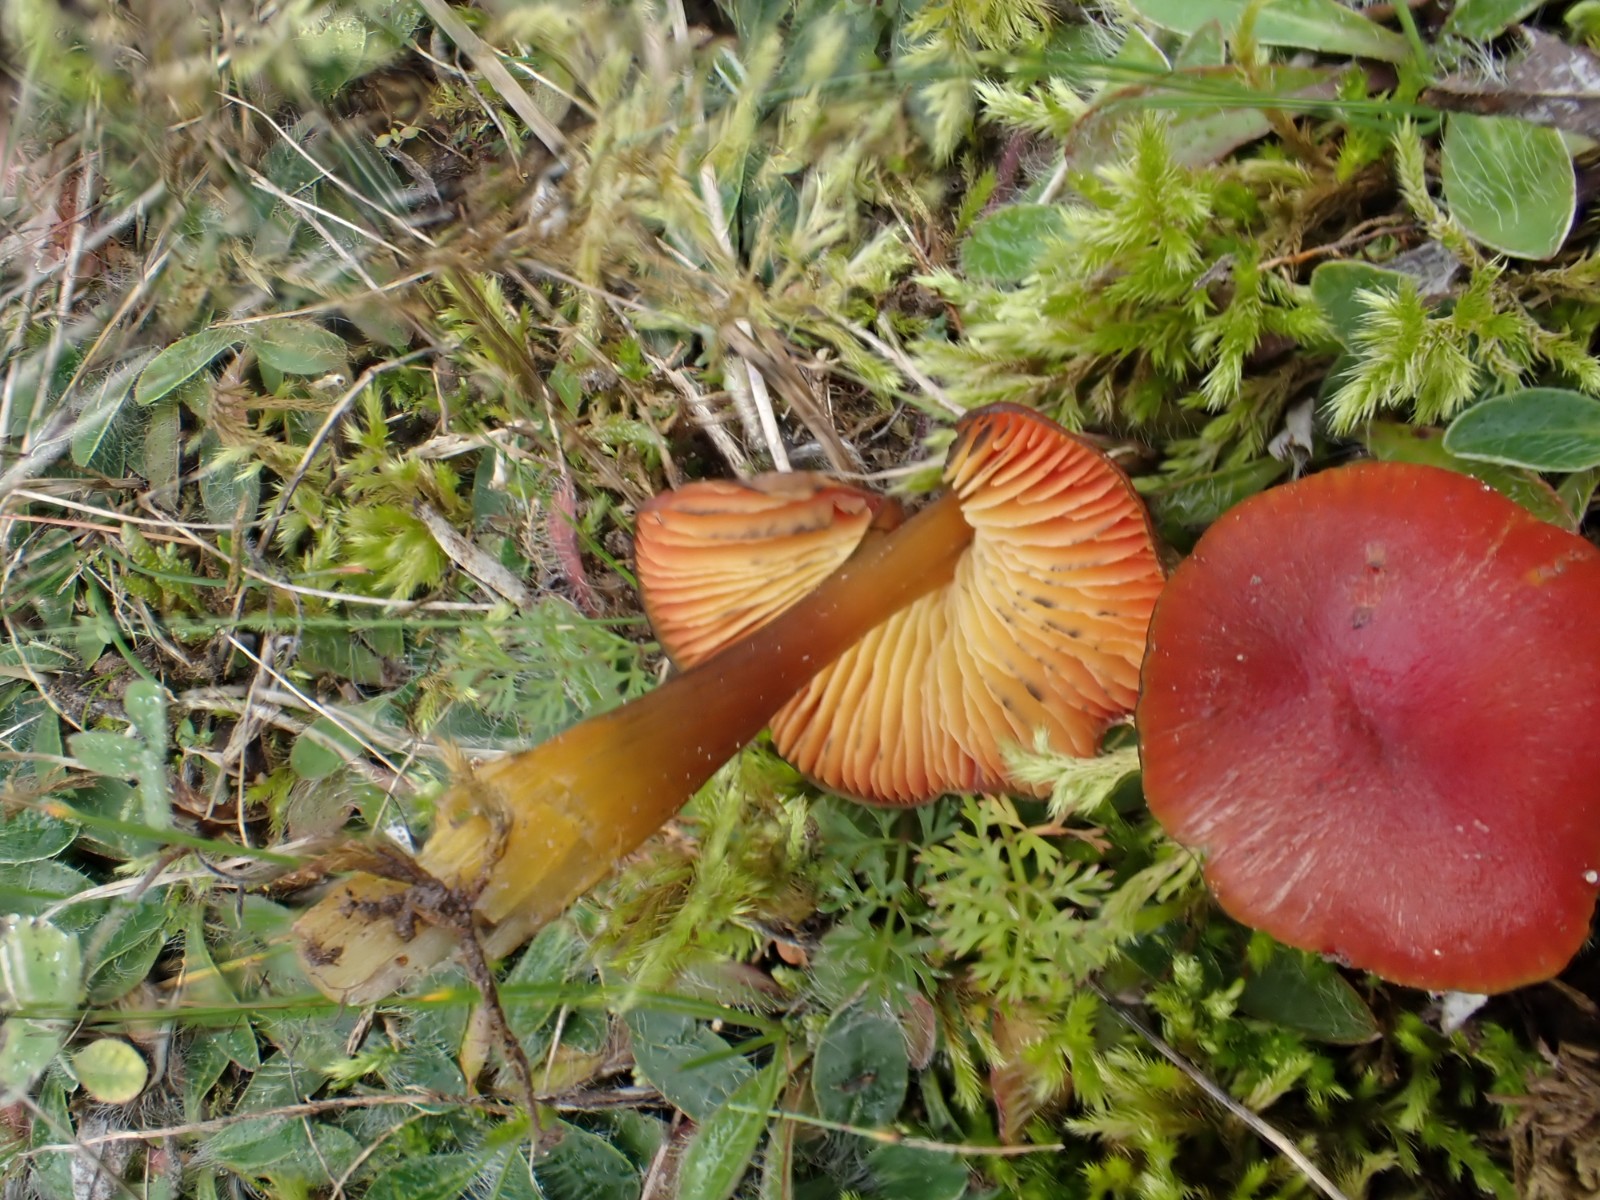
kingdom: Fungi
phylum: Basidiomycota
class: Agaricomycetes
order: Agaricales
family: Hygrophoraceae
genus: Hygrocybe
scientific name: Hygrocybe conica
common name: kegle-vokshat
